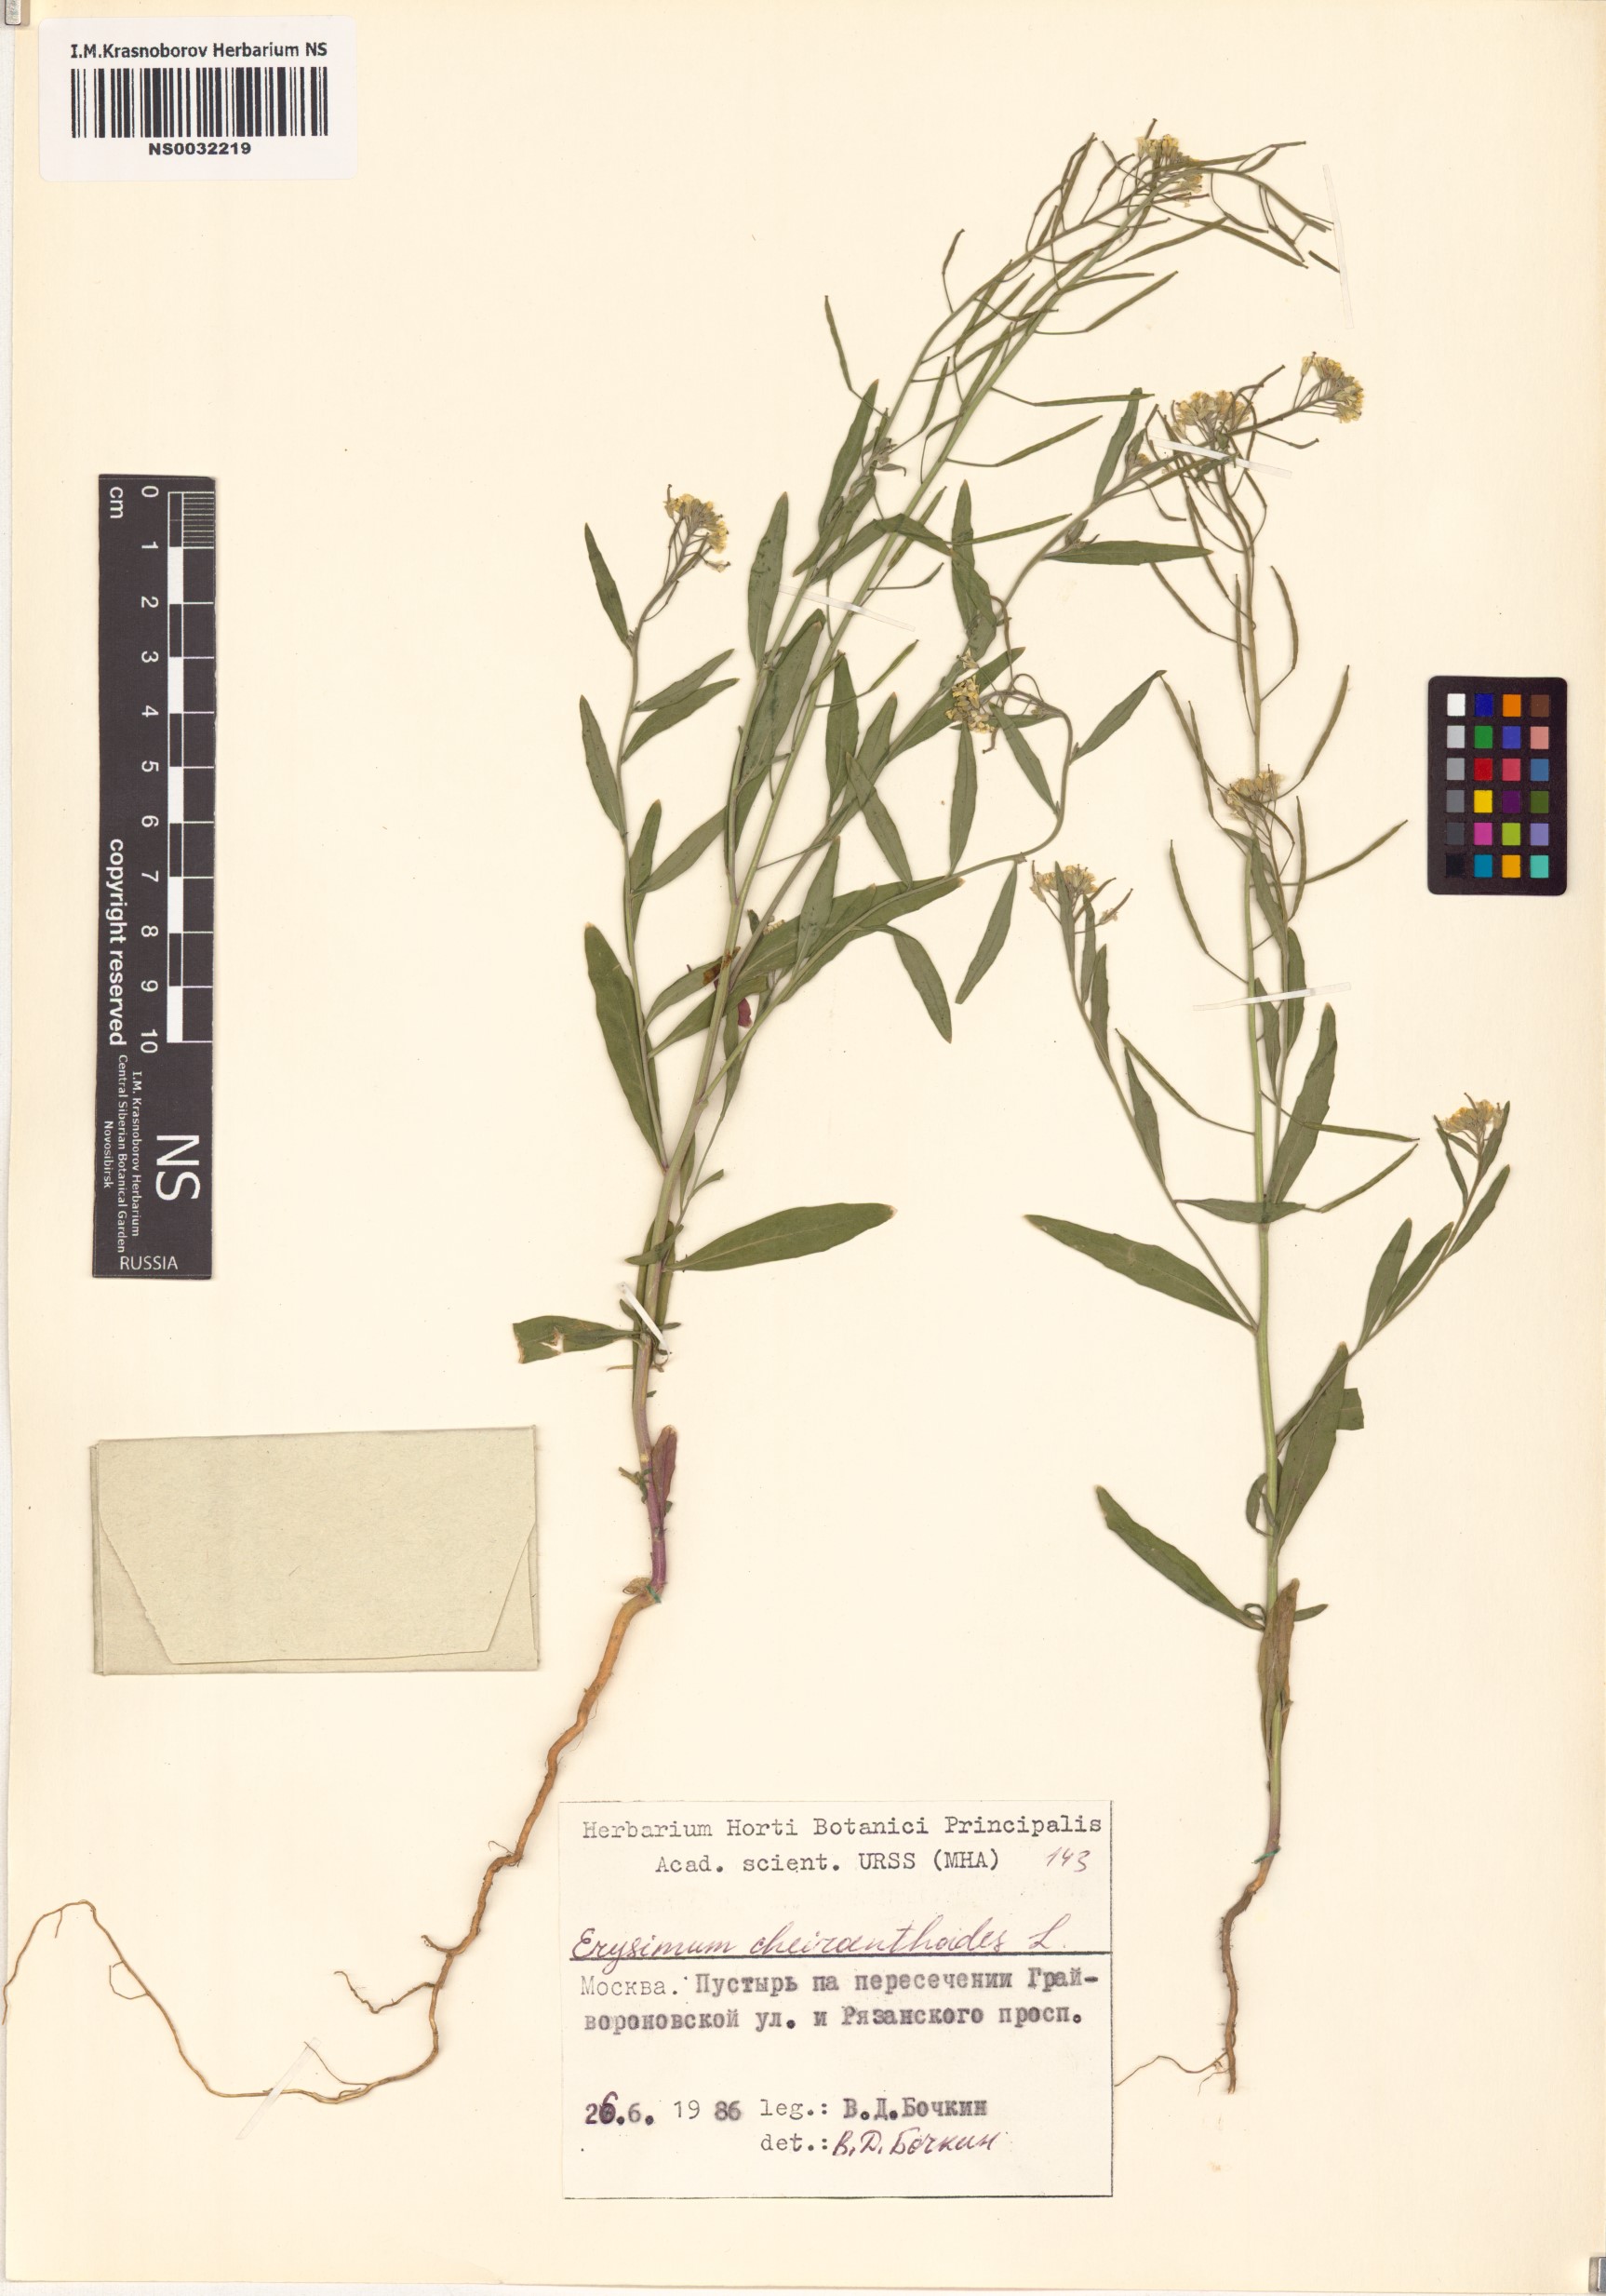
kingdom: Plantae
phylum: Tracheophyta
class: Magnoliopsida
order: Brassicales
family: Brassicaceae
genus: Erysimum
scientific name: Erysimum cheiranthoides
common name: Treacle mustard
